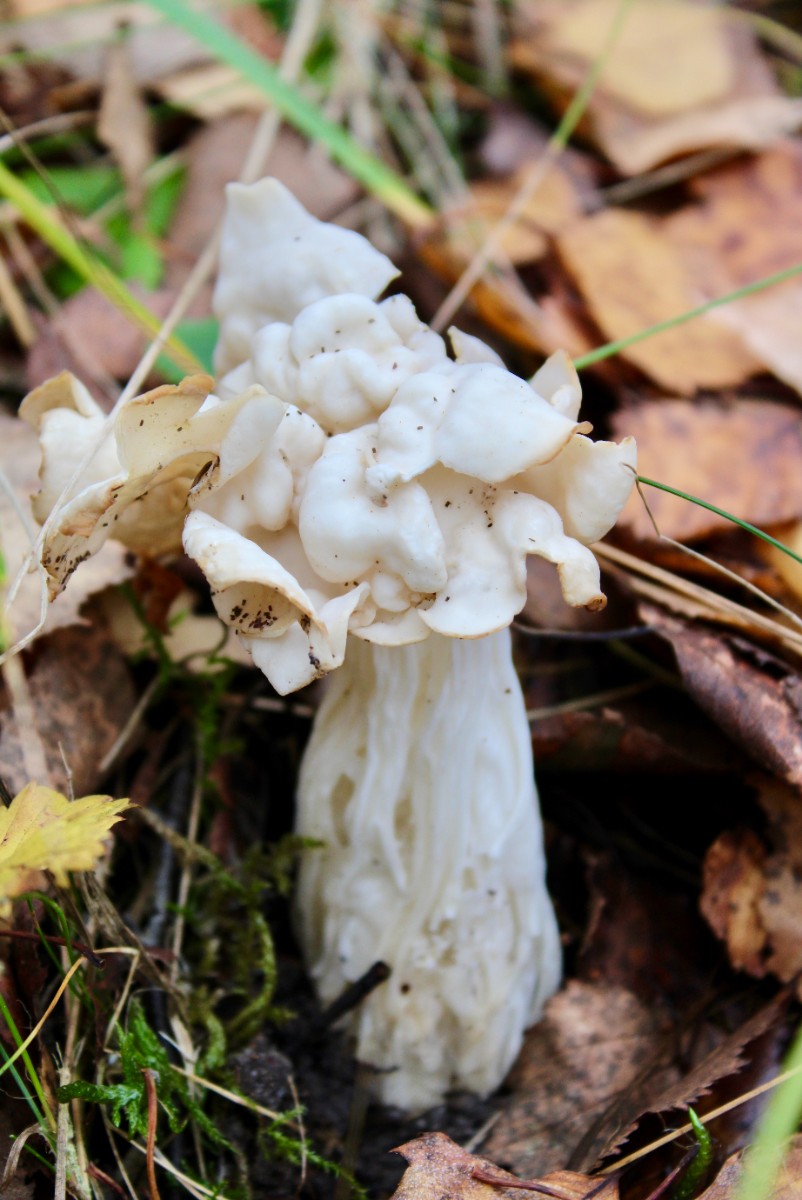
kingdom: Fungi
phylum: Ascomycota
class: Pezizomycetes
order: Pezizales
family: Helvellaceae
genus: Helvella
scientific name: Helvella crispa
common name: kruset foldhat
